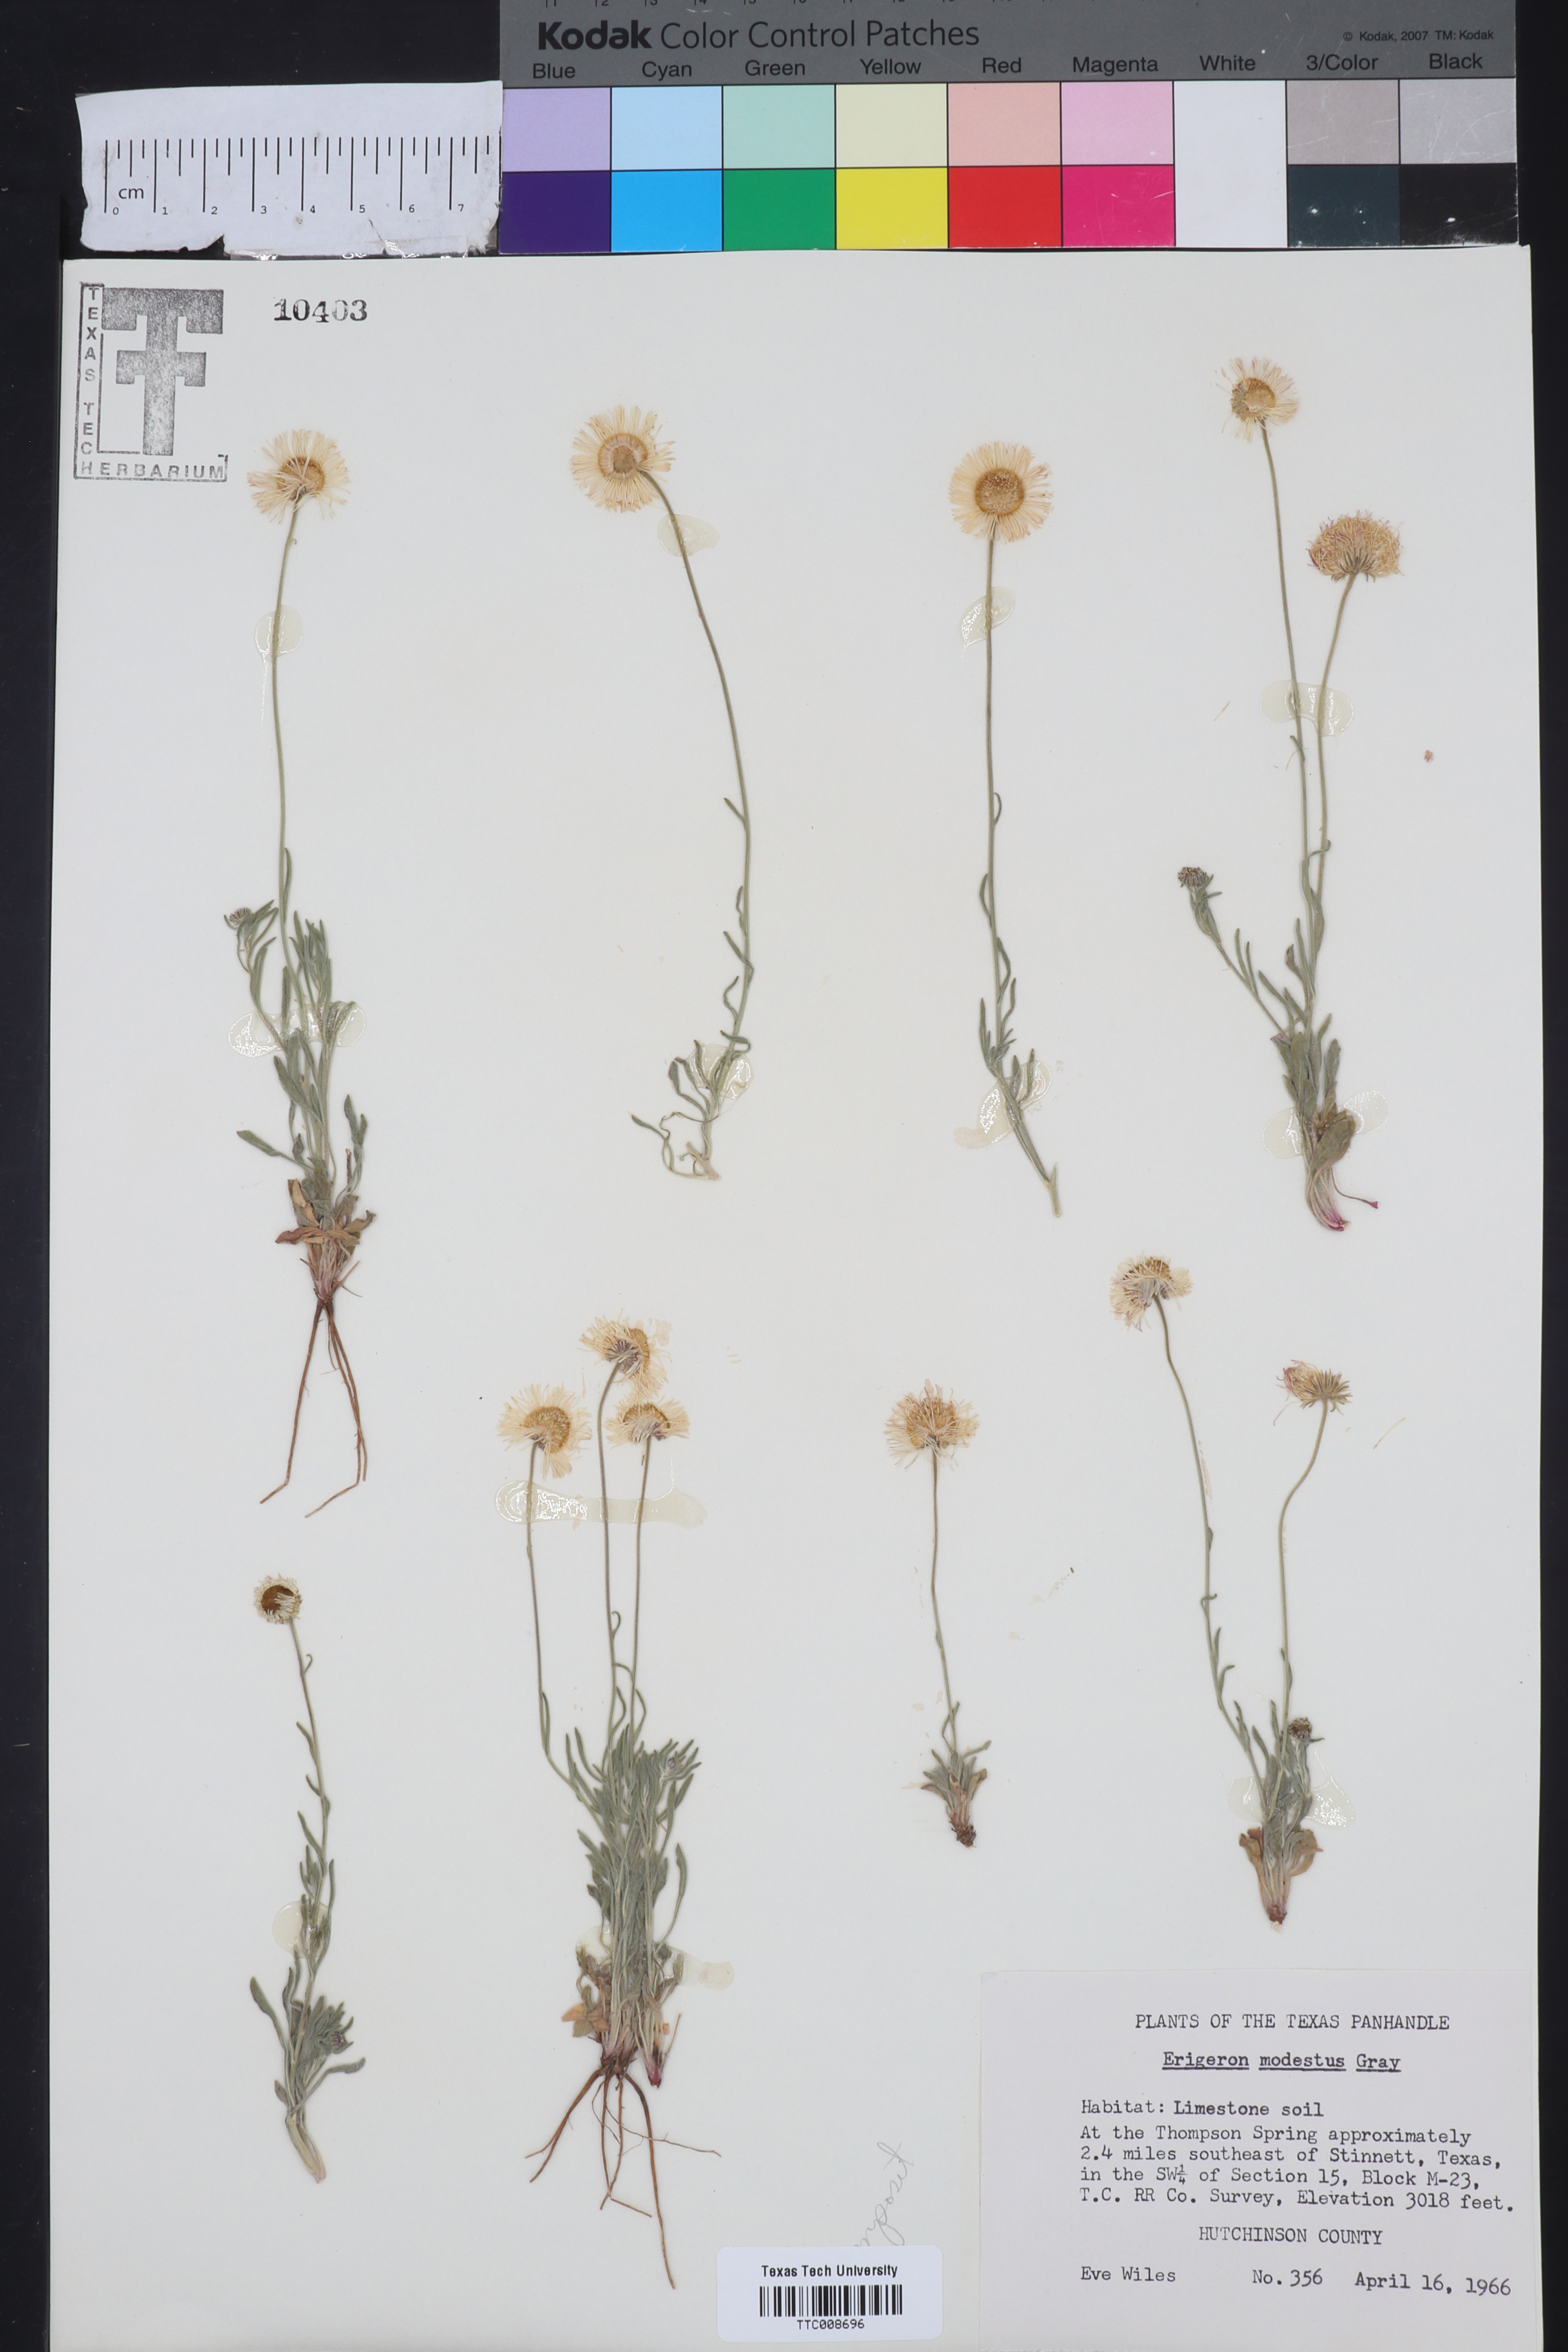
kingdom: Plantae
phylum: Tracheophyta
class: Magnoliopsida
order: Asterales
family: Asteraceae
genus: Erigeron
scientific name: Erigeron modestus
